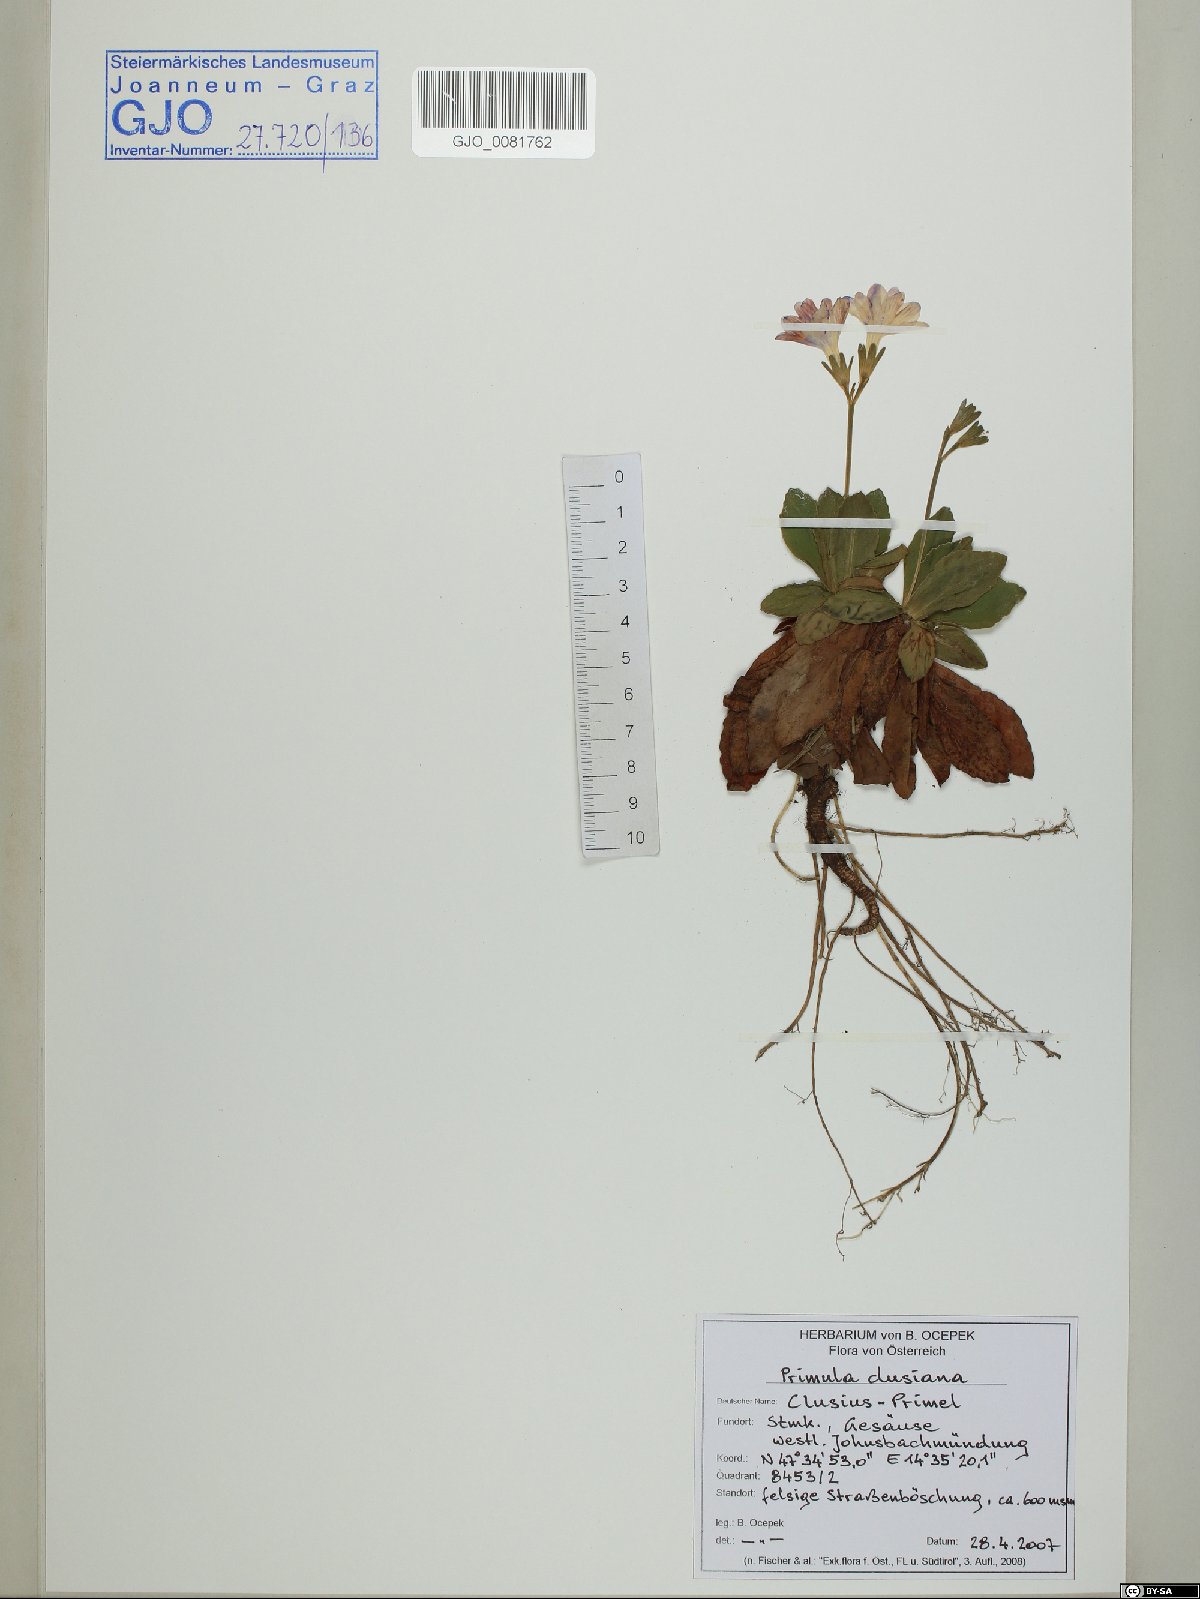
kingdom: Plantae
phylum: Tracheophyta
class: Magnoliopsida
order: Ericales
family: Primulaceae
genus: Primula
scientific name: Primula clusiana
